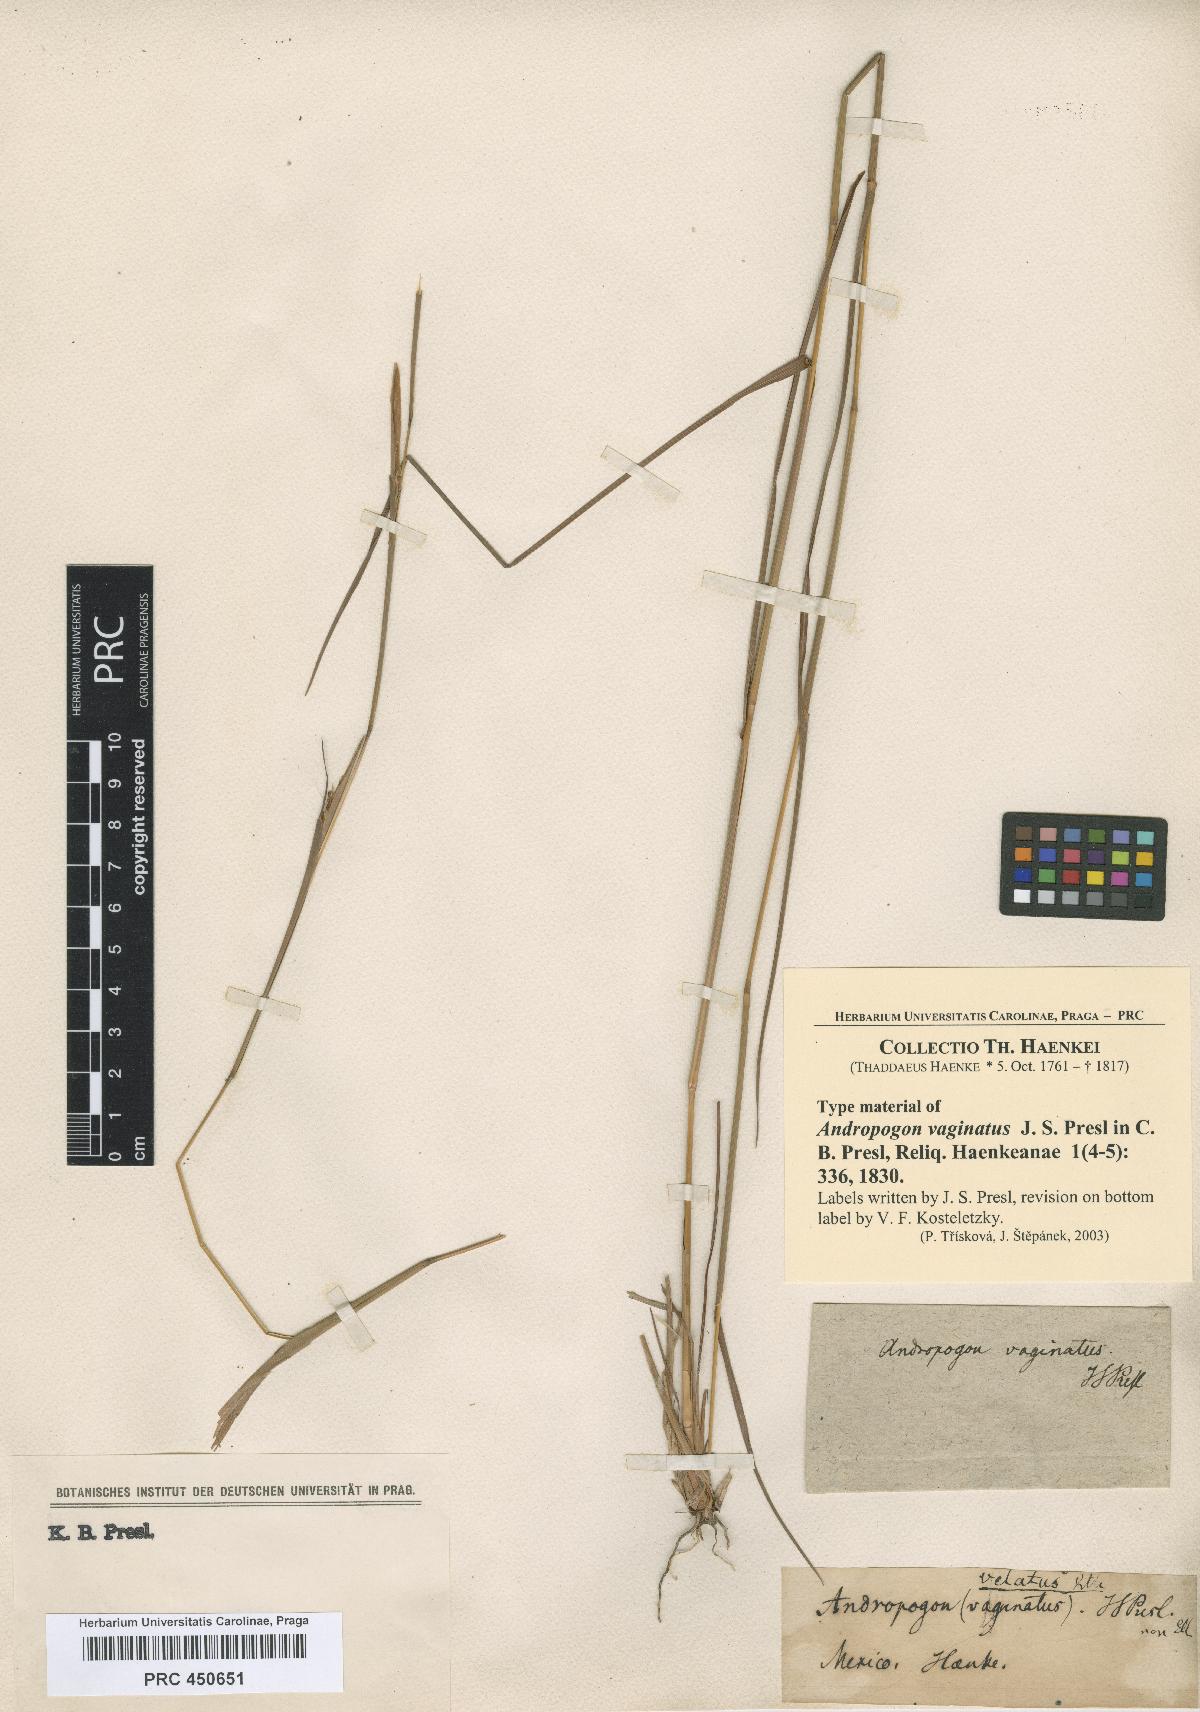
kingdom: Plantae
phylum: Tracheophyta
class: Liliopsida
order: Poales
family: Poaceae
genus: Schizachyrium
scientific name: Schizachyrium sanguineum
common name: Crimson bluestem
